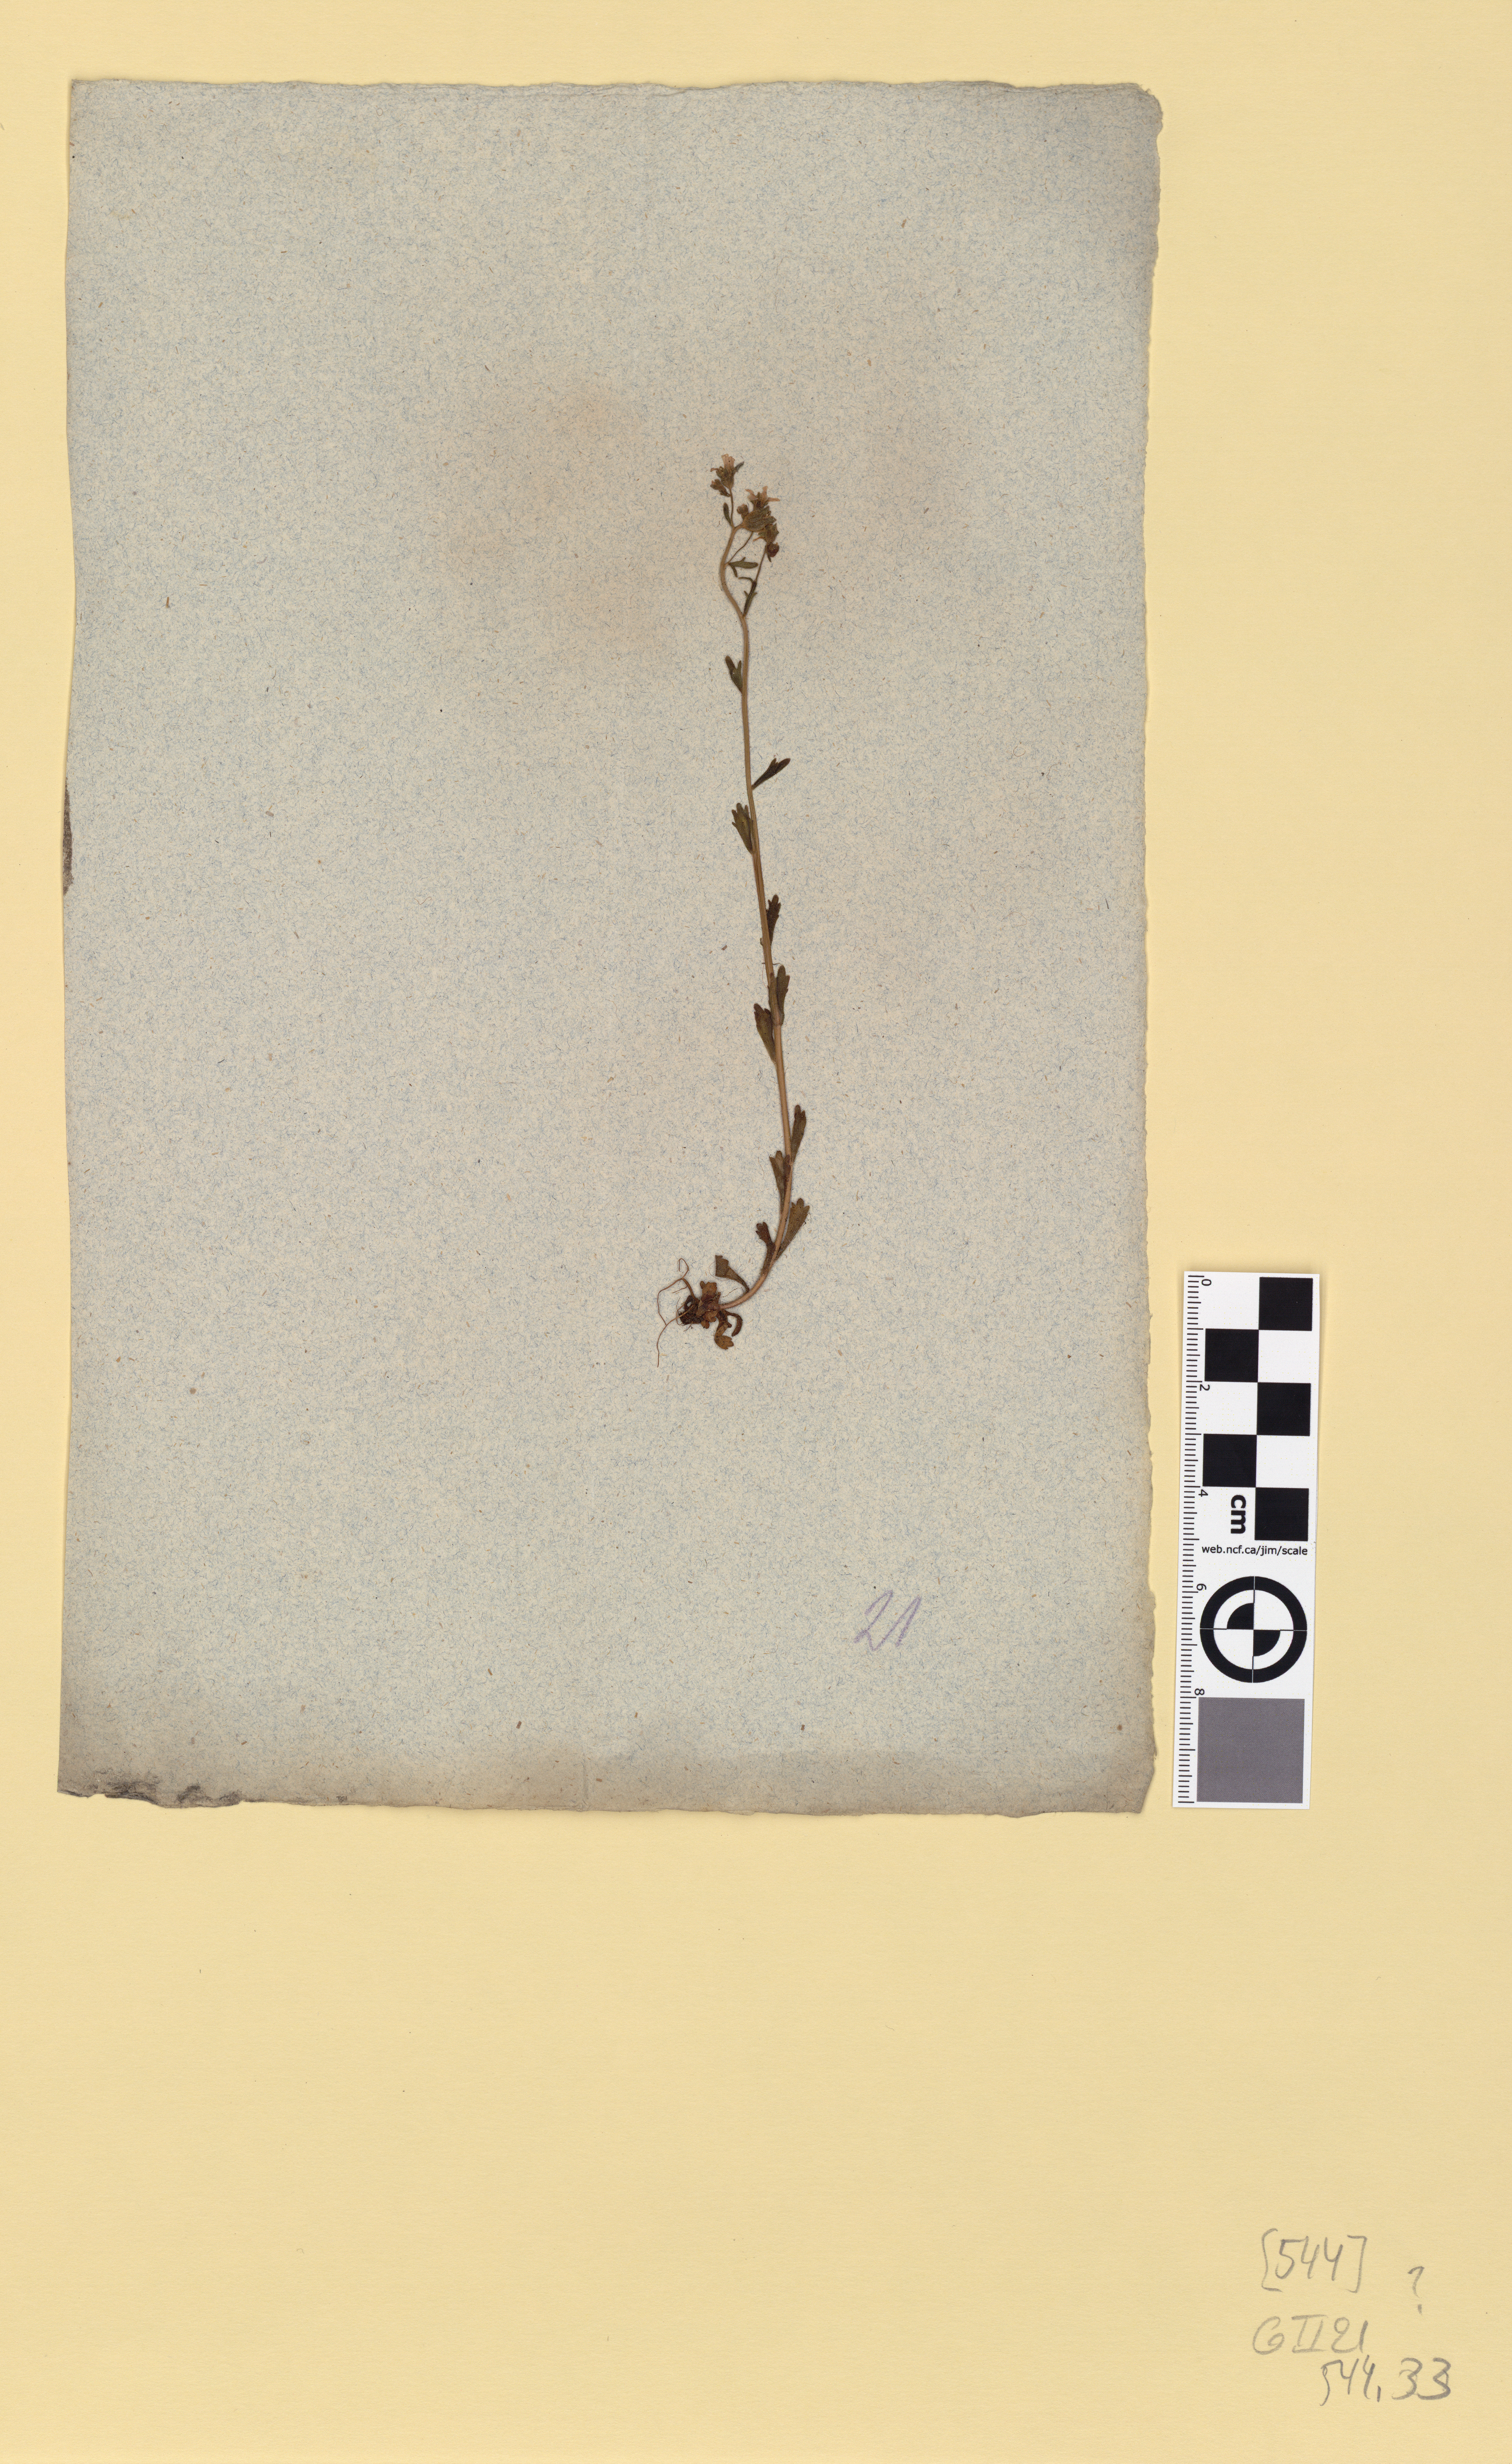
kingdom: Plantae
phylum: Tracheophyta
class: Magnoliopsida
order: Saxifragales
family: Saxifragaceae
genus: Saxifraga
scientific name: Saxifraga tridactylites
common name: Rue-leaved saxifrage
